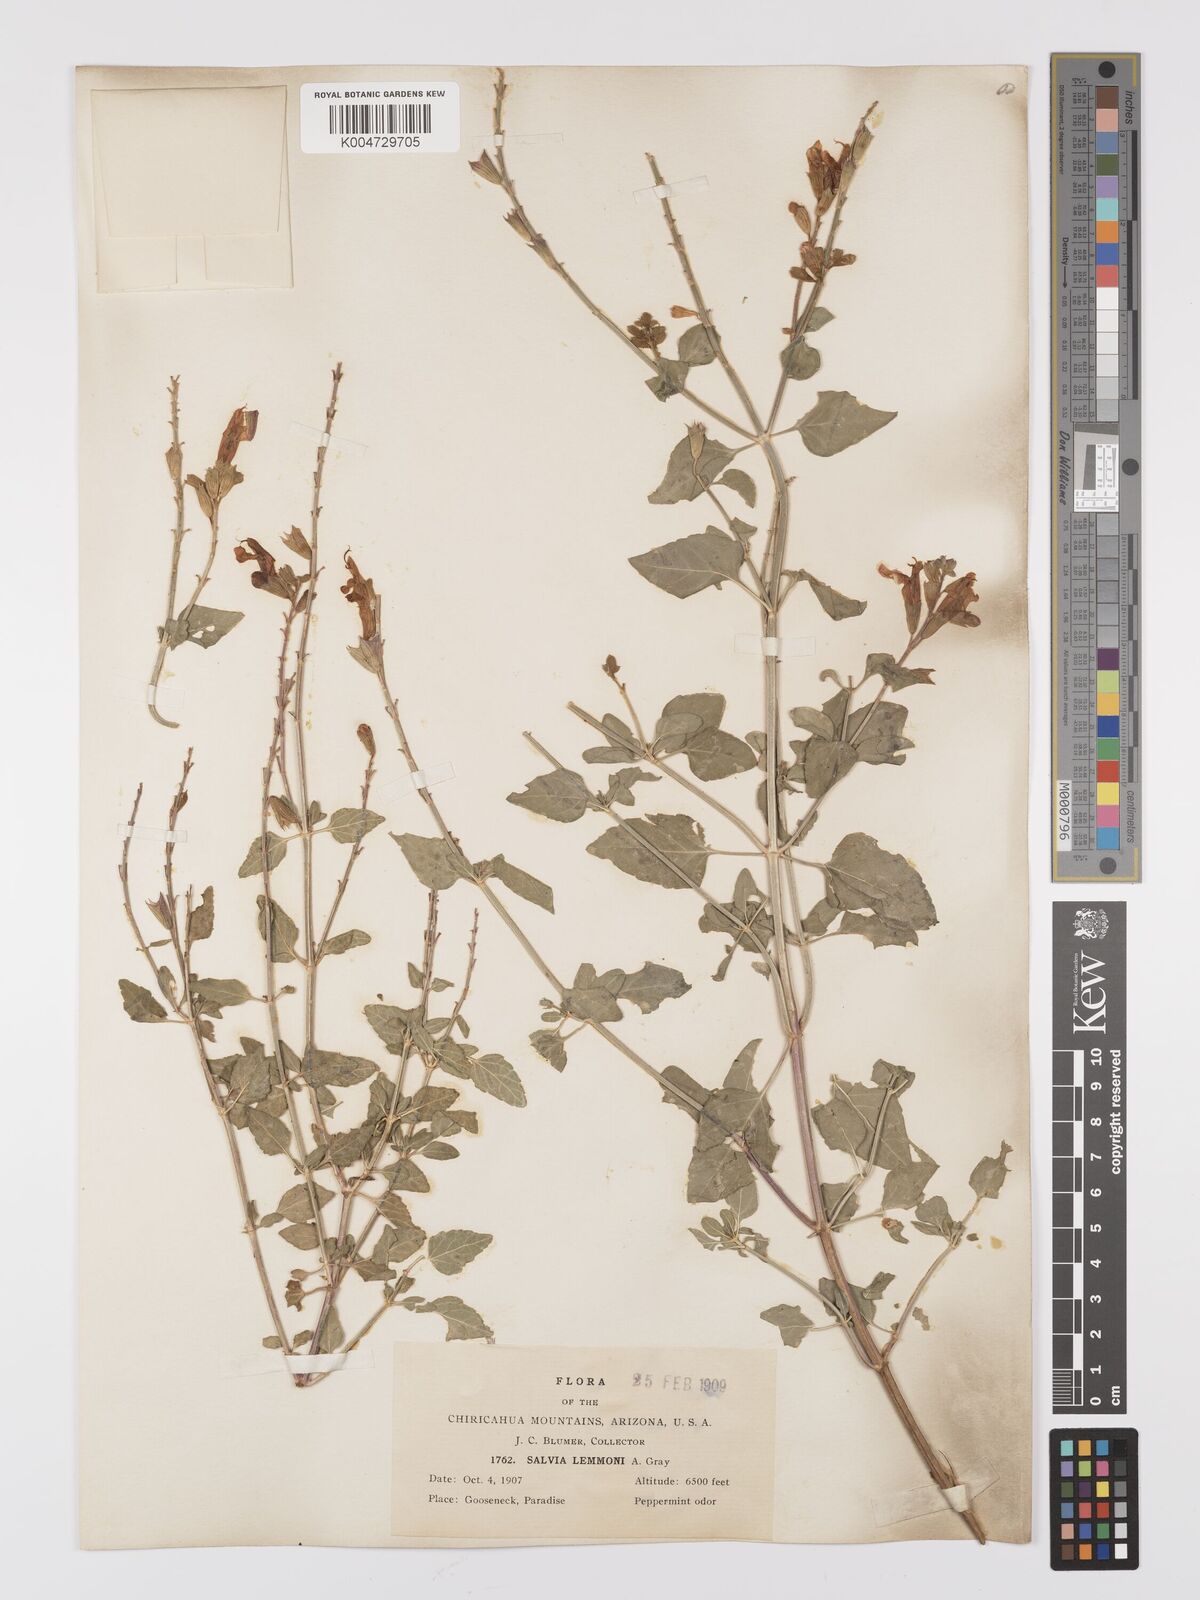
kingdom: Plantae
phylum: Tracheophyta
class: Magnoliopsida
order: Lamiales
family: Lamiaceae
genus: Salvia
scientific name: Salvia
